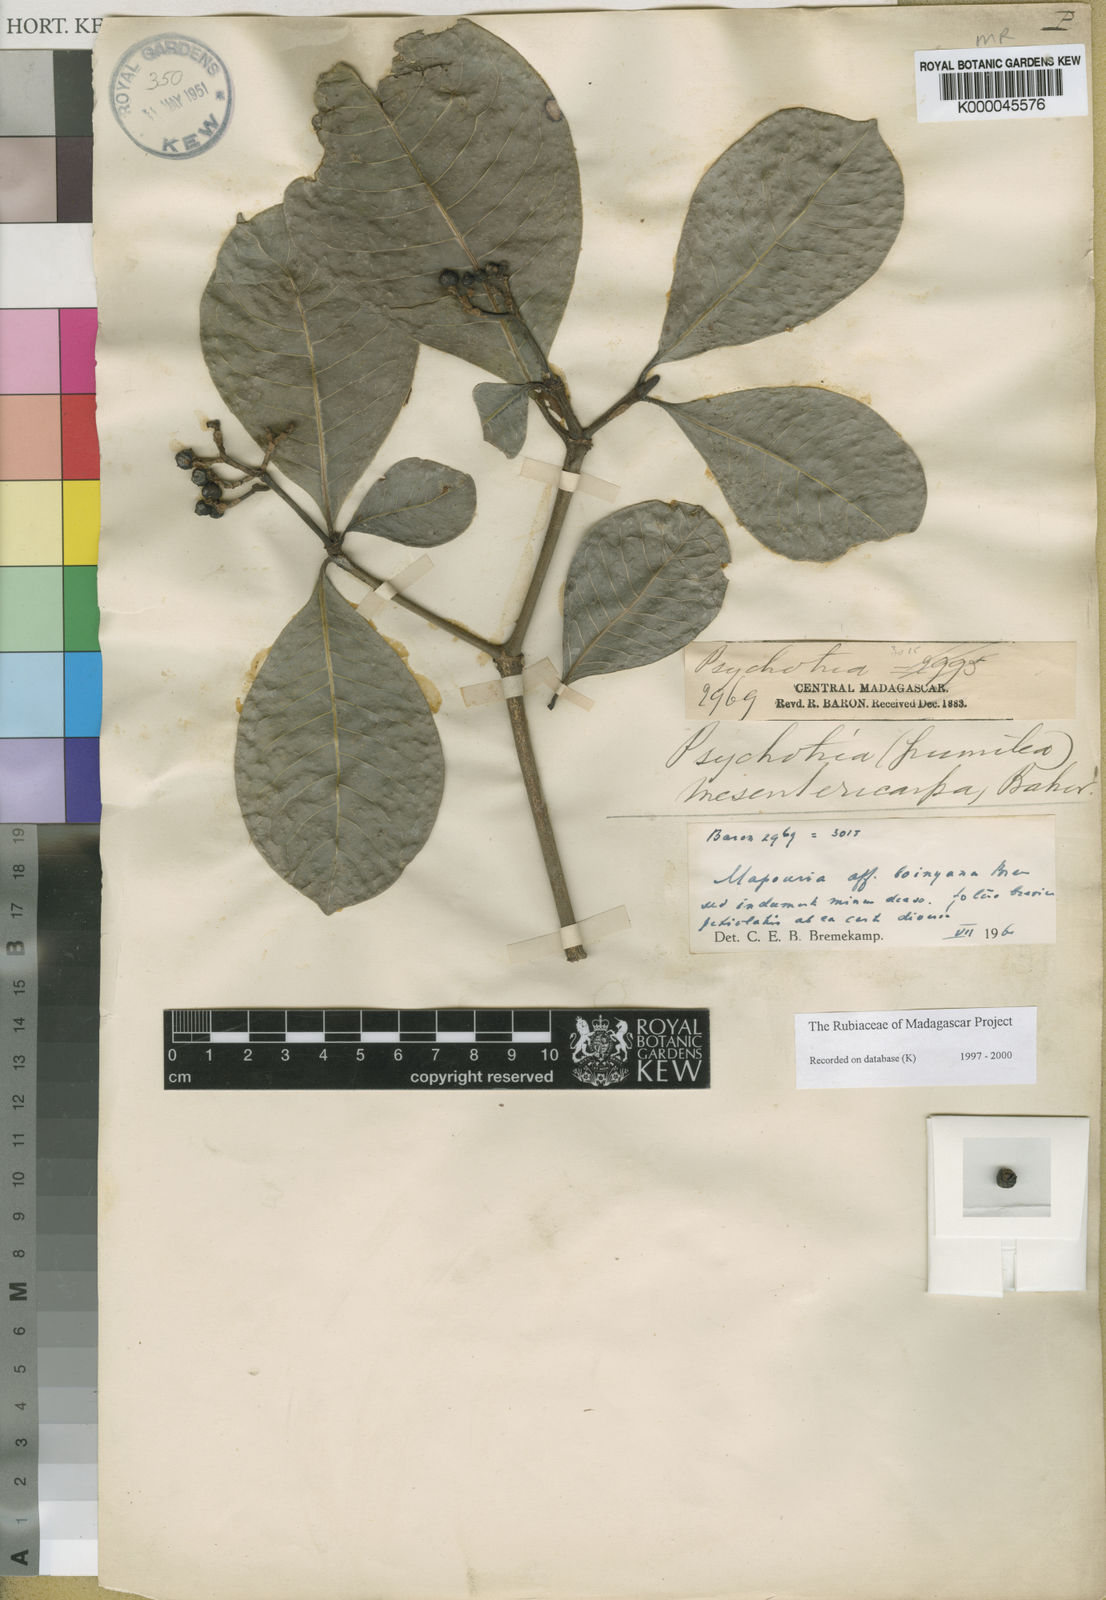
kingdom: Plantae
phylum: Tracheophyta
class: Magnoliopsida
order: Gentianales
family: Rubiaceae
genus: Psychotria
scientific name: Psychotria mesentericarpa
